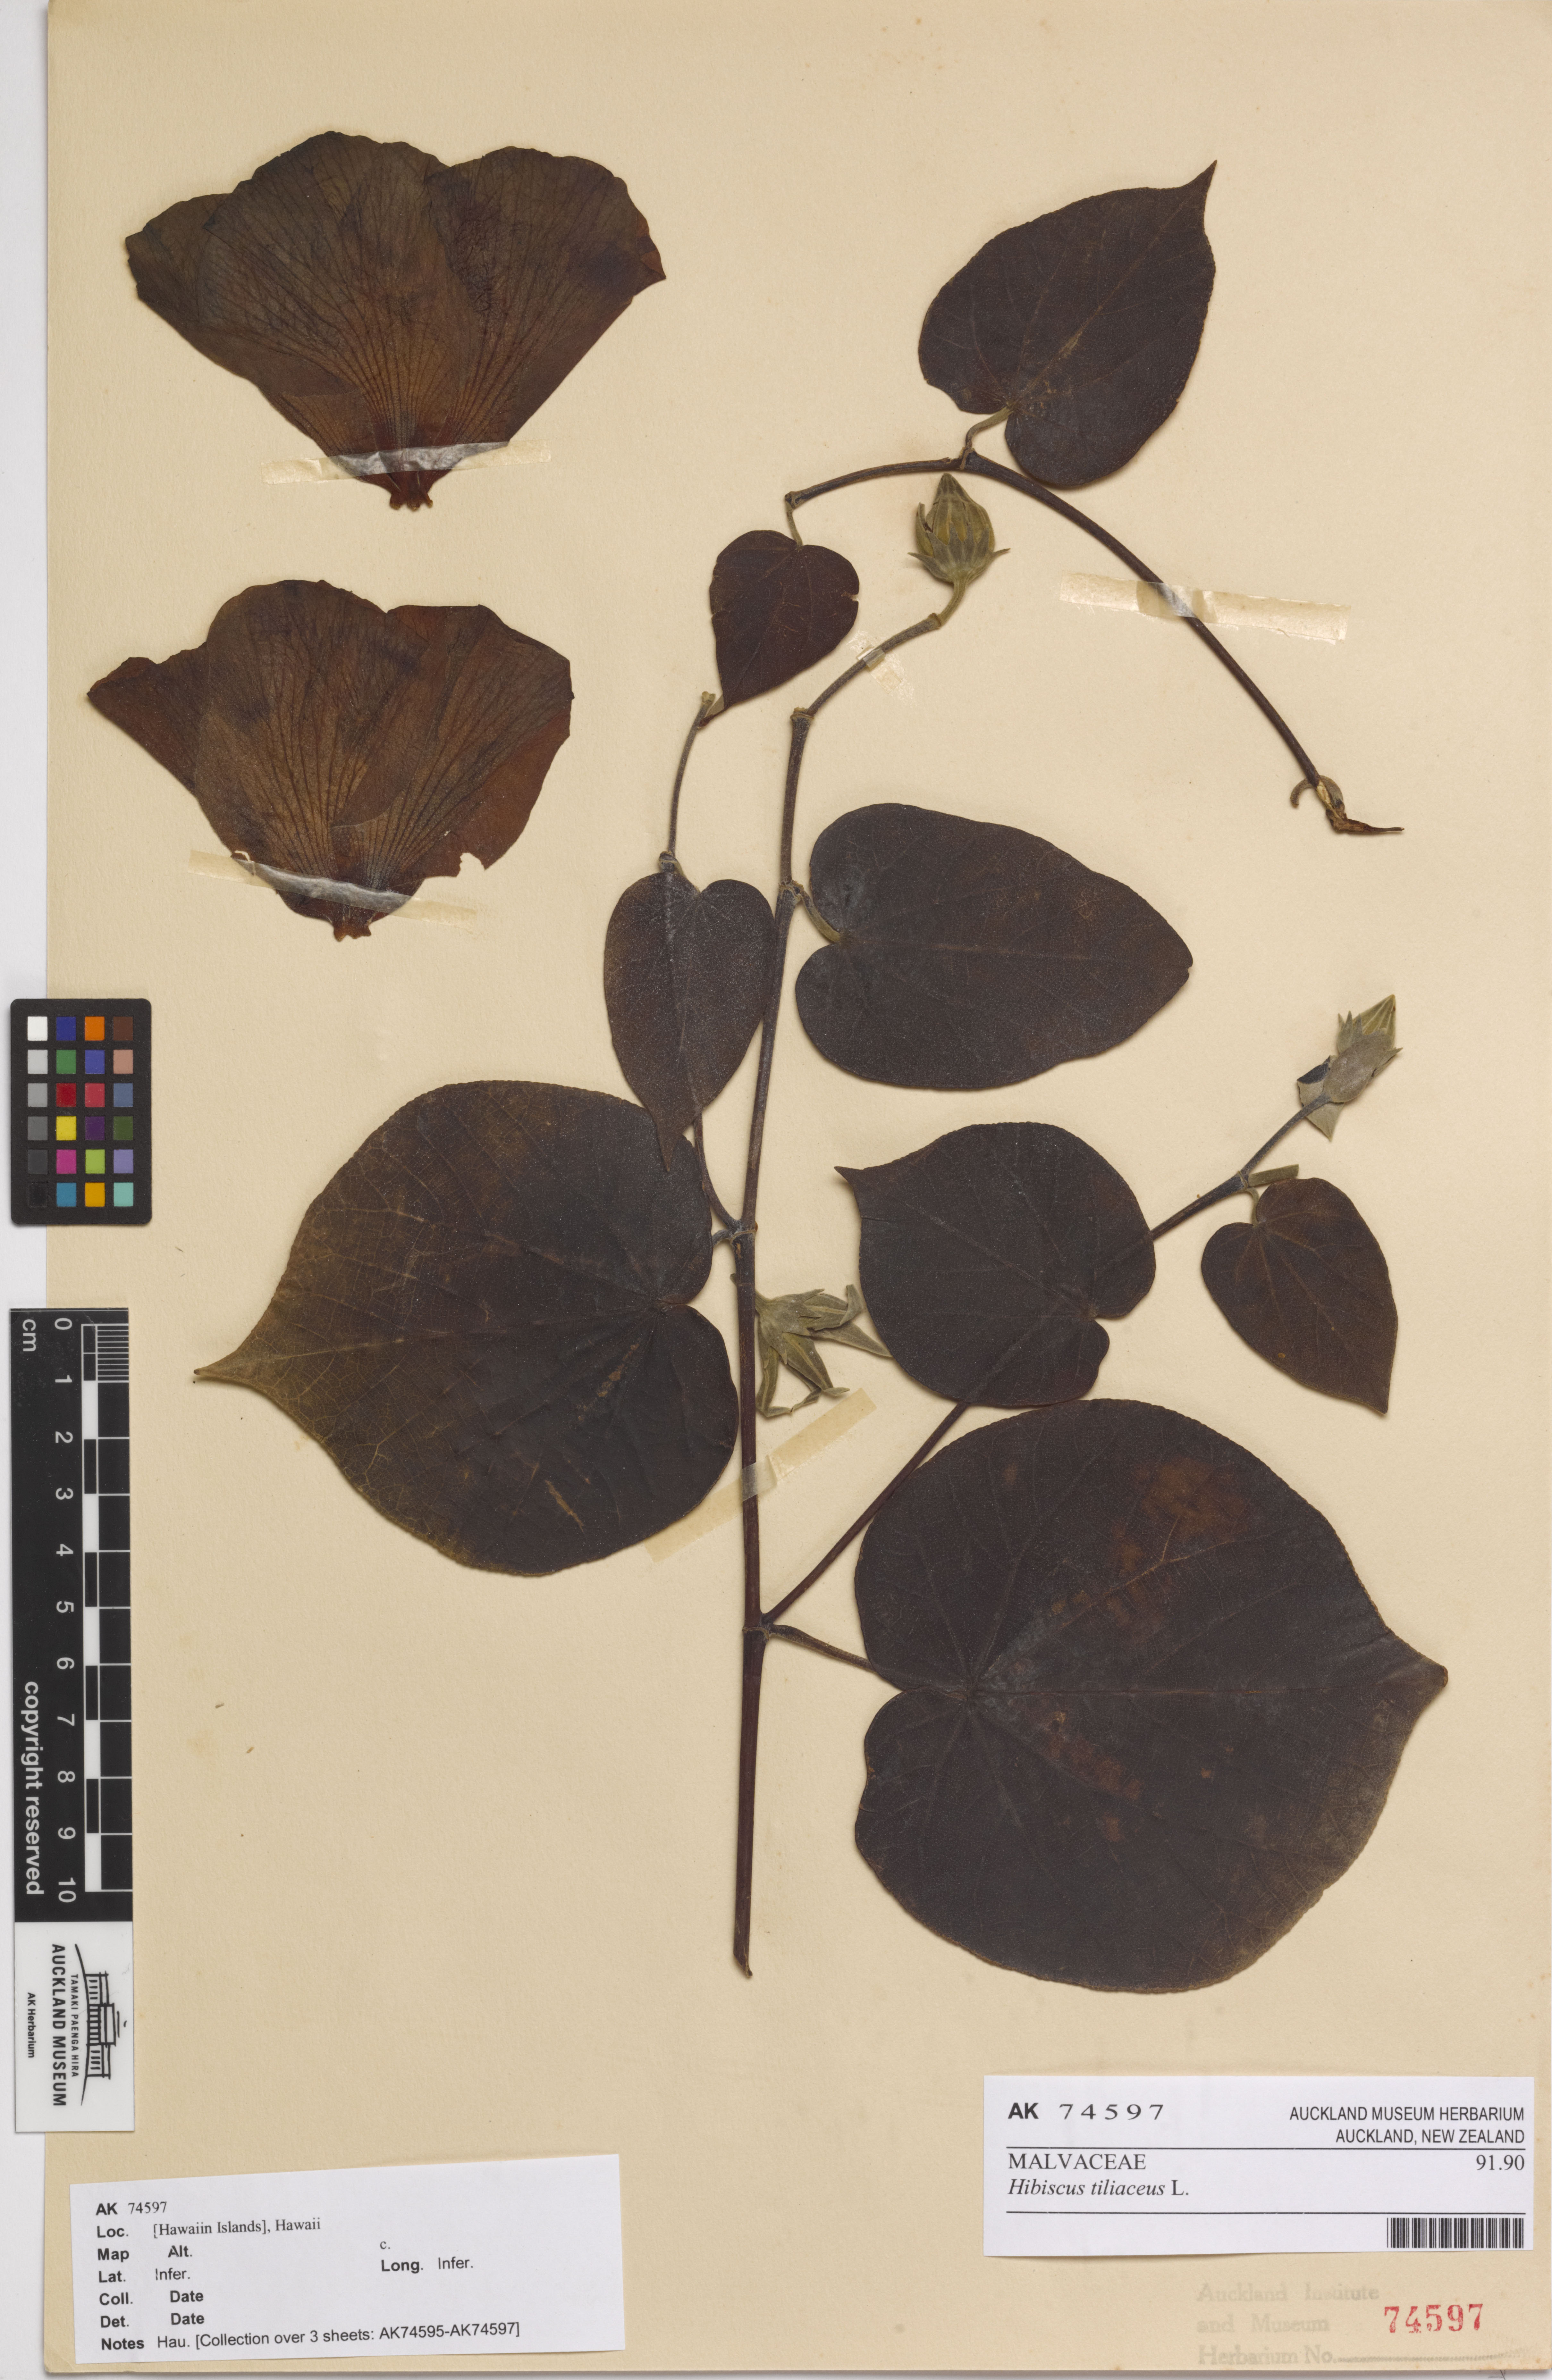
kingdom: Plantae
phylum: Tracheophyta
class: Magnoliopsida
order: Malvales
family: Malvaceae
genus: Talipariti
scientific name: Talipariti tiliaceum
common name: Sea hibiscus
